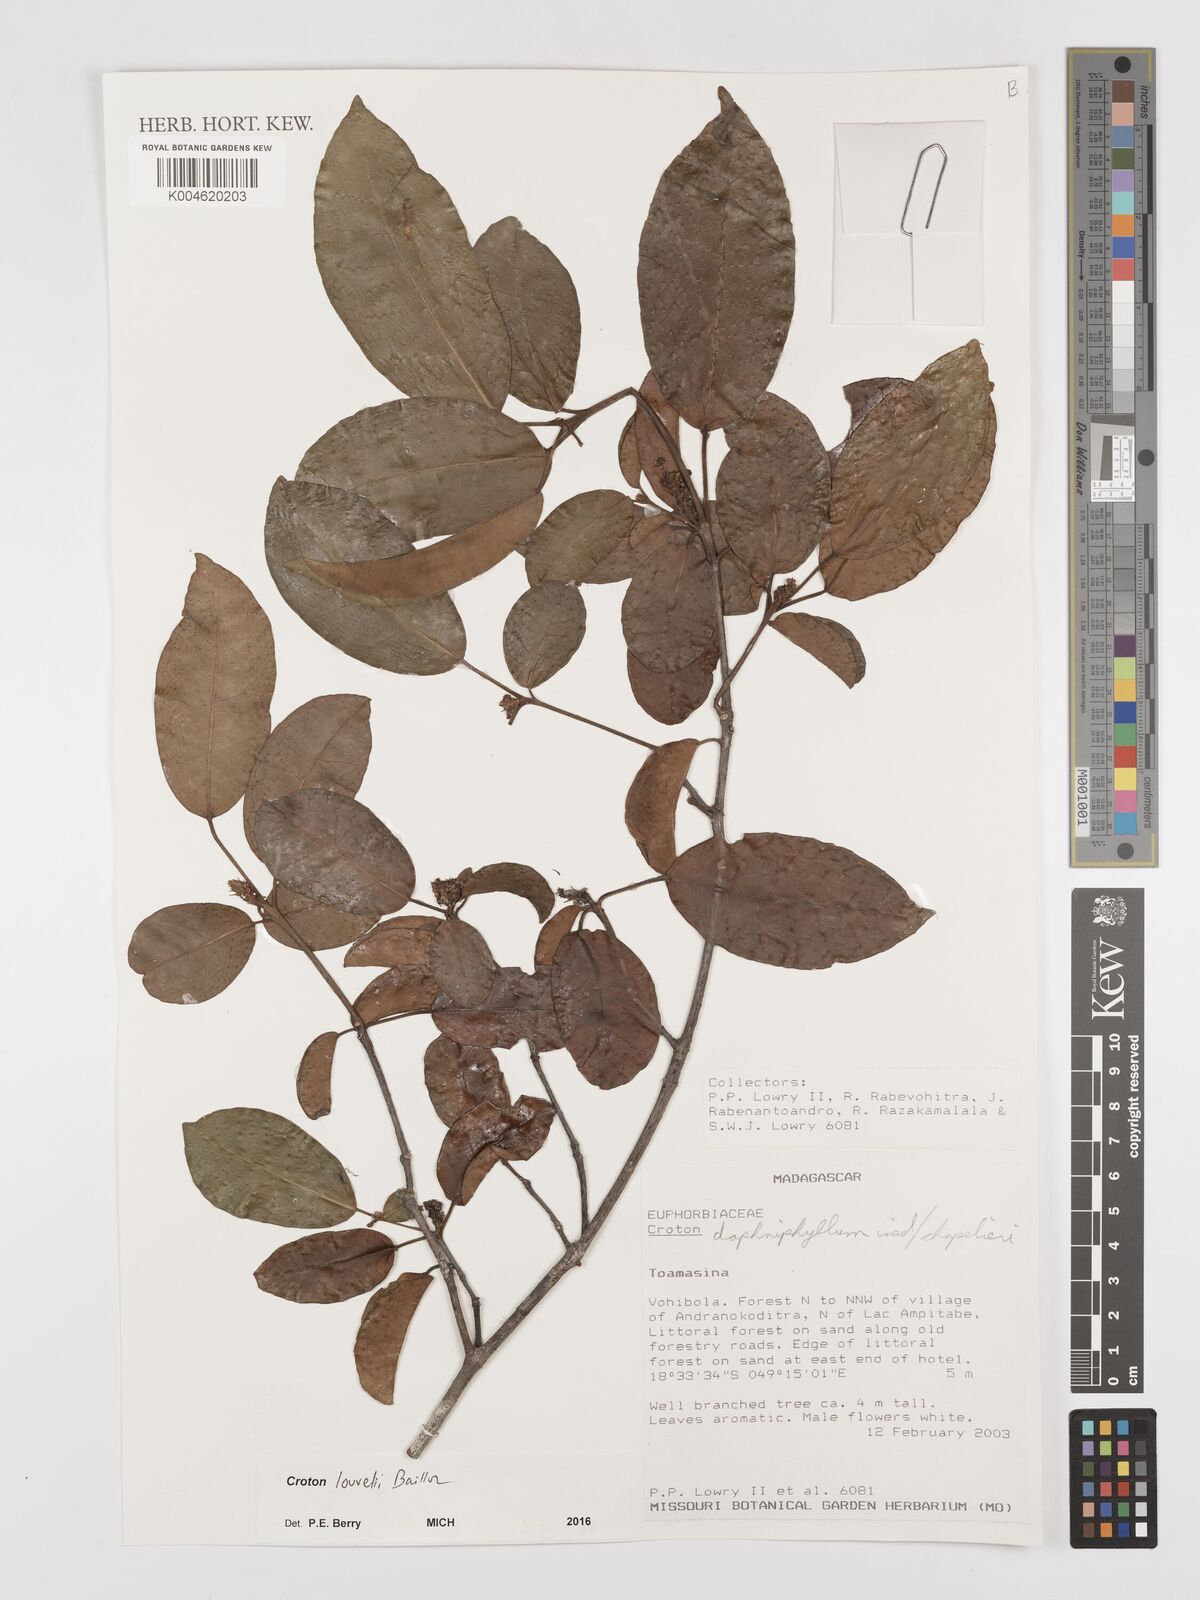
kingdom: Plantae
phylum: Tracheophyta
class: Magnoliopsida
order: Malpighiales
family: Euphorbiaceae
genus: Croton
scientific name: Croton chapelieri
